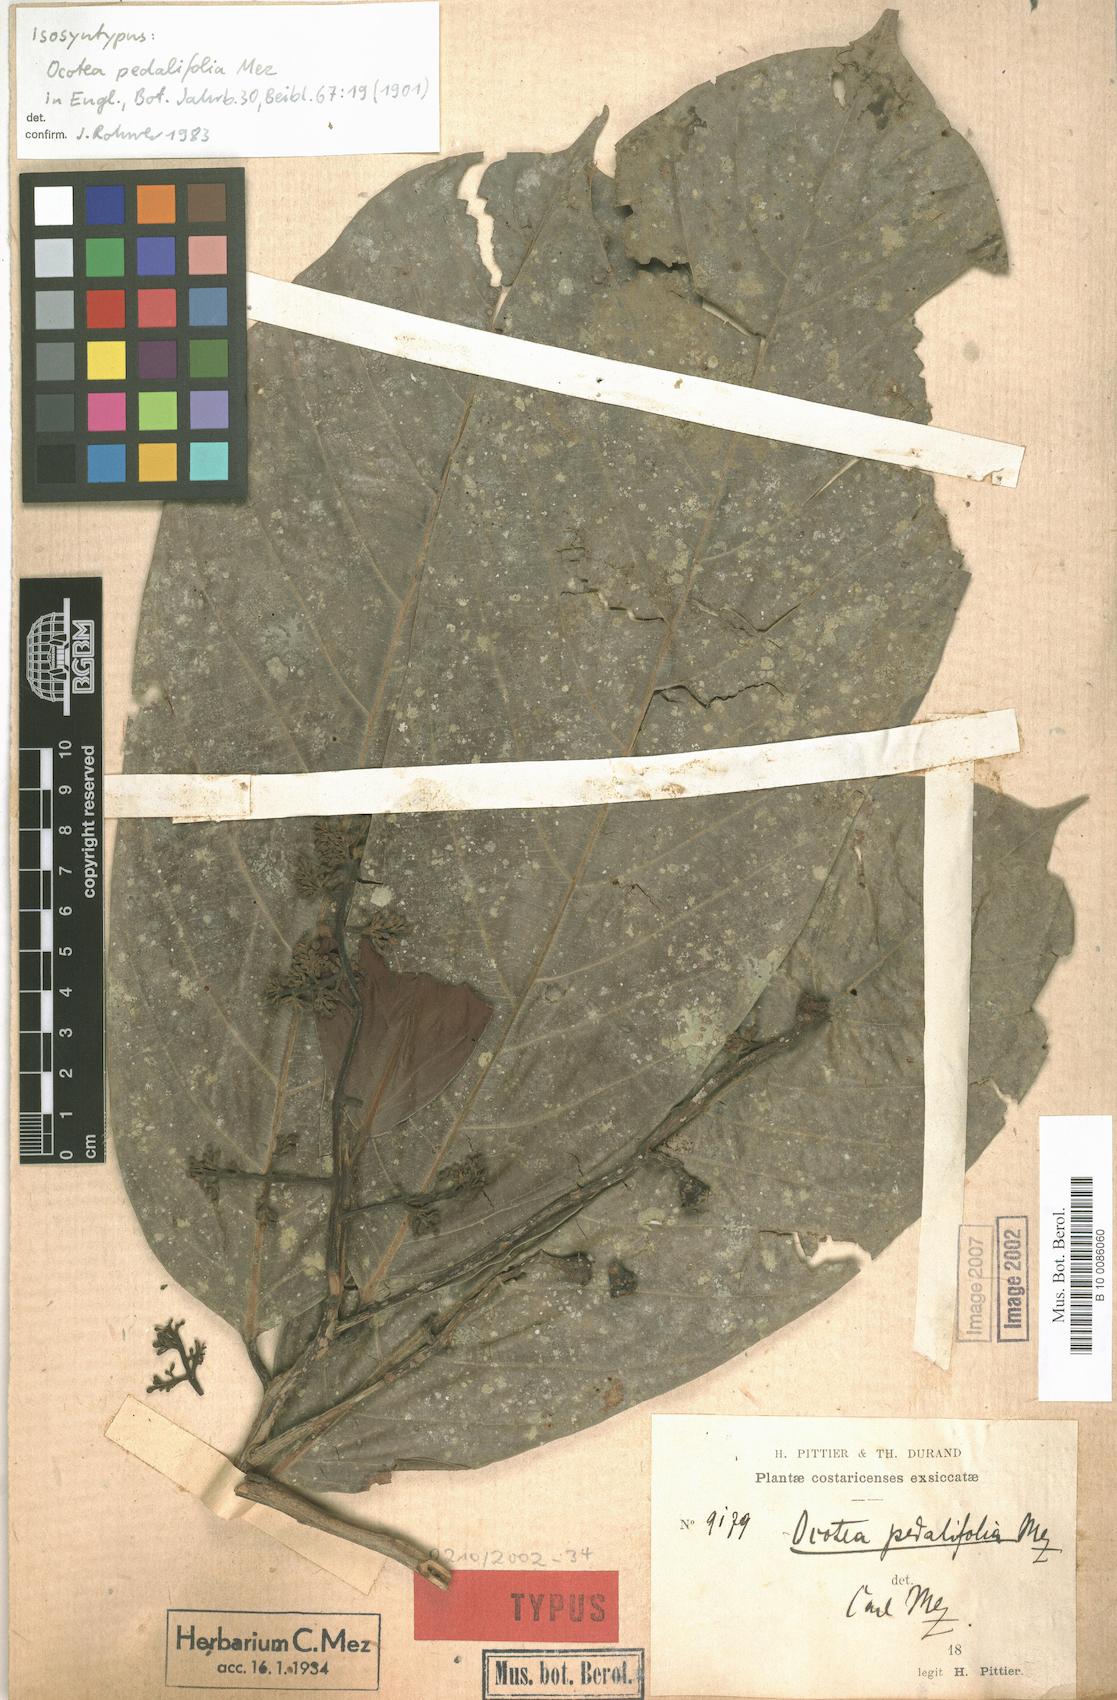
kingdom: Plantae
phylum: Tracheophyta
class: Magnoliopsida
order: Laurales
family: Lauraceae
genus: Ocotea
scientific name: Ocotea atirrensis
